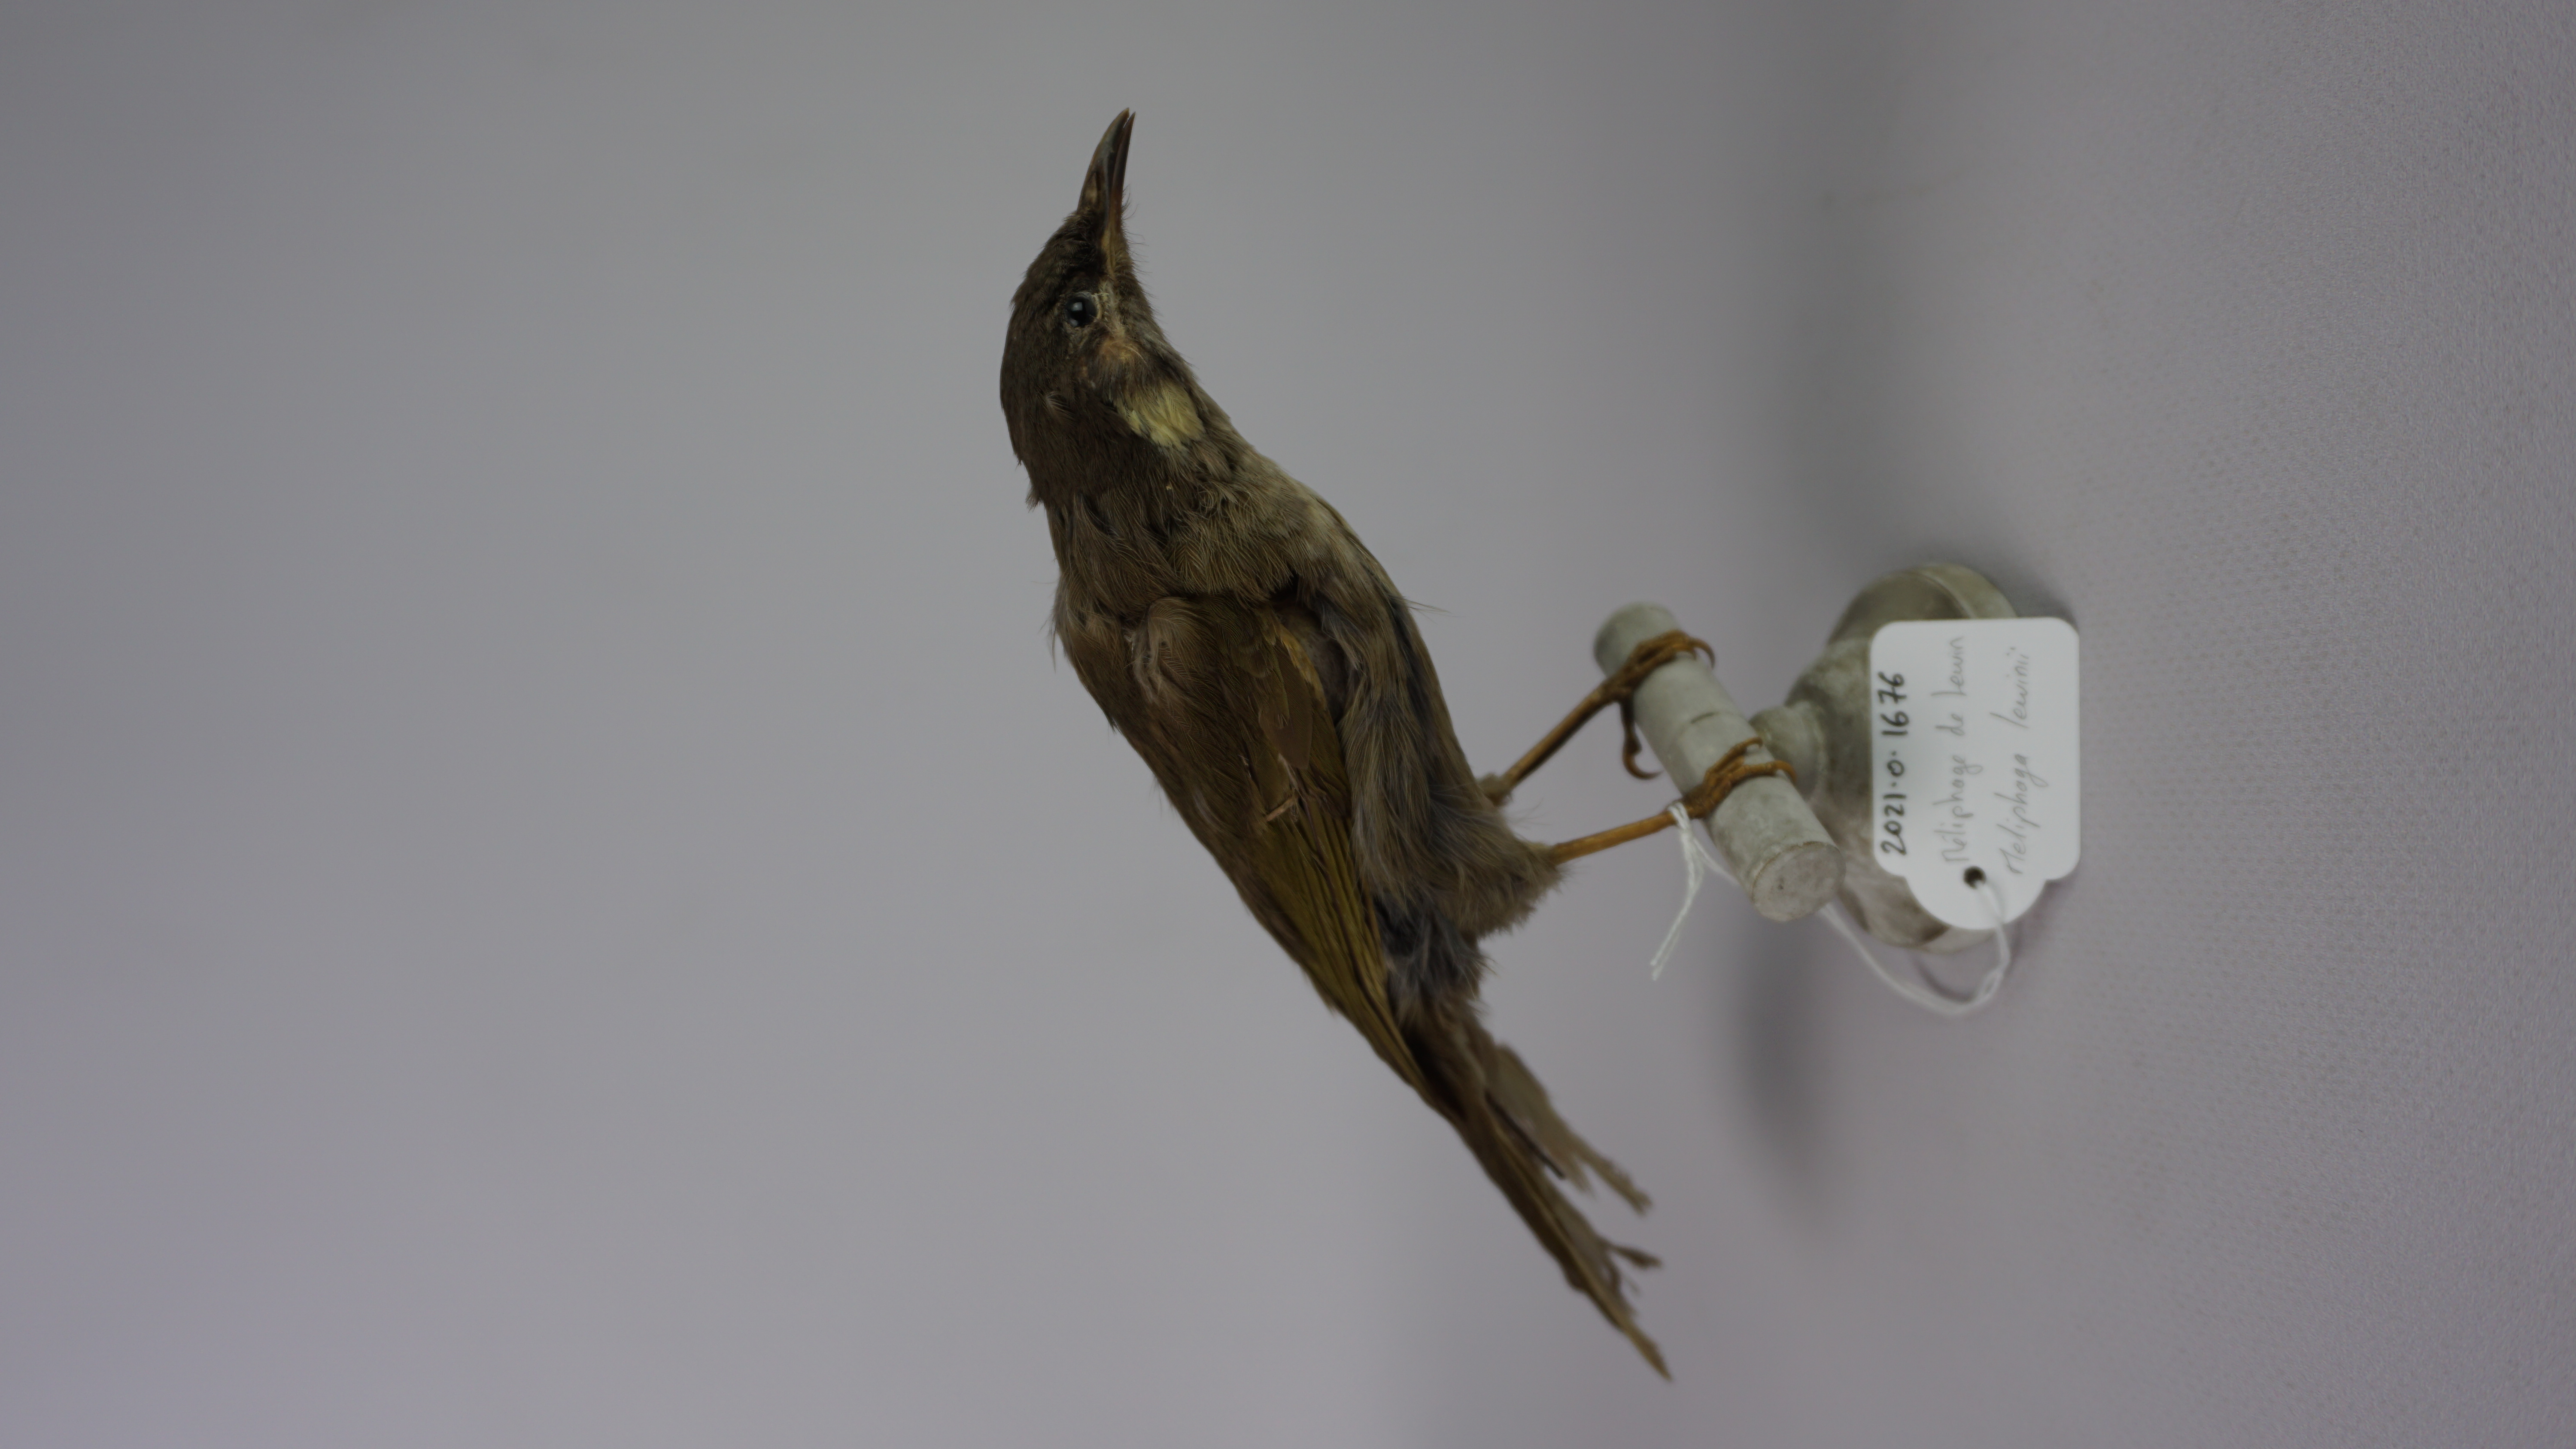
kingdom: Animalia
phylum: Chordata
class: Aves
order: Passeriformes
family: Meliphagidae
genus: Meliphaga
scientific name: Meliphaga lewinii
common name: Lewin's honeyeater
